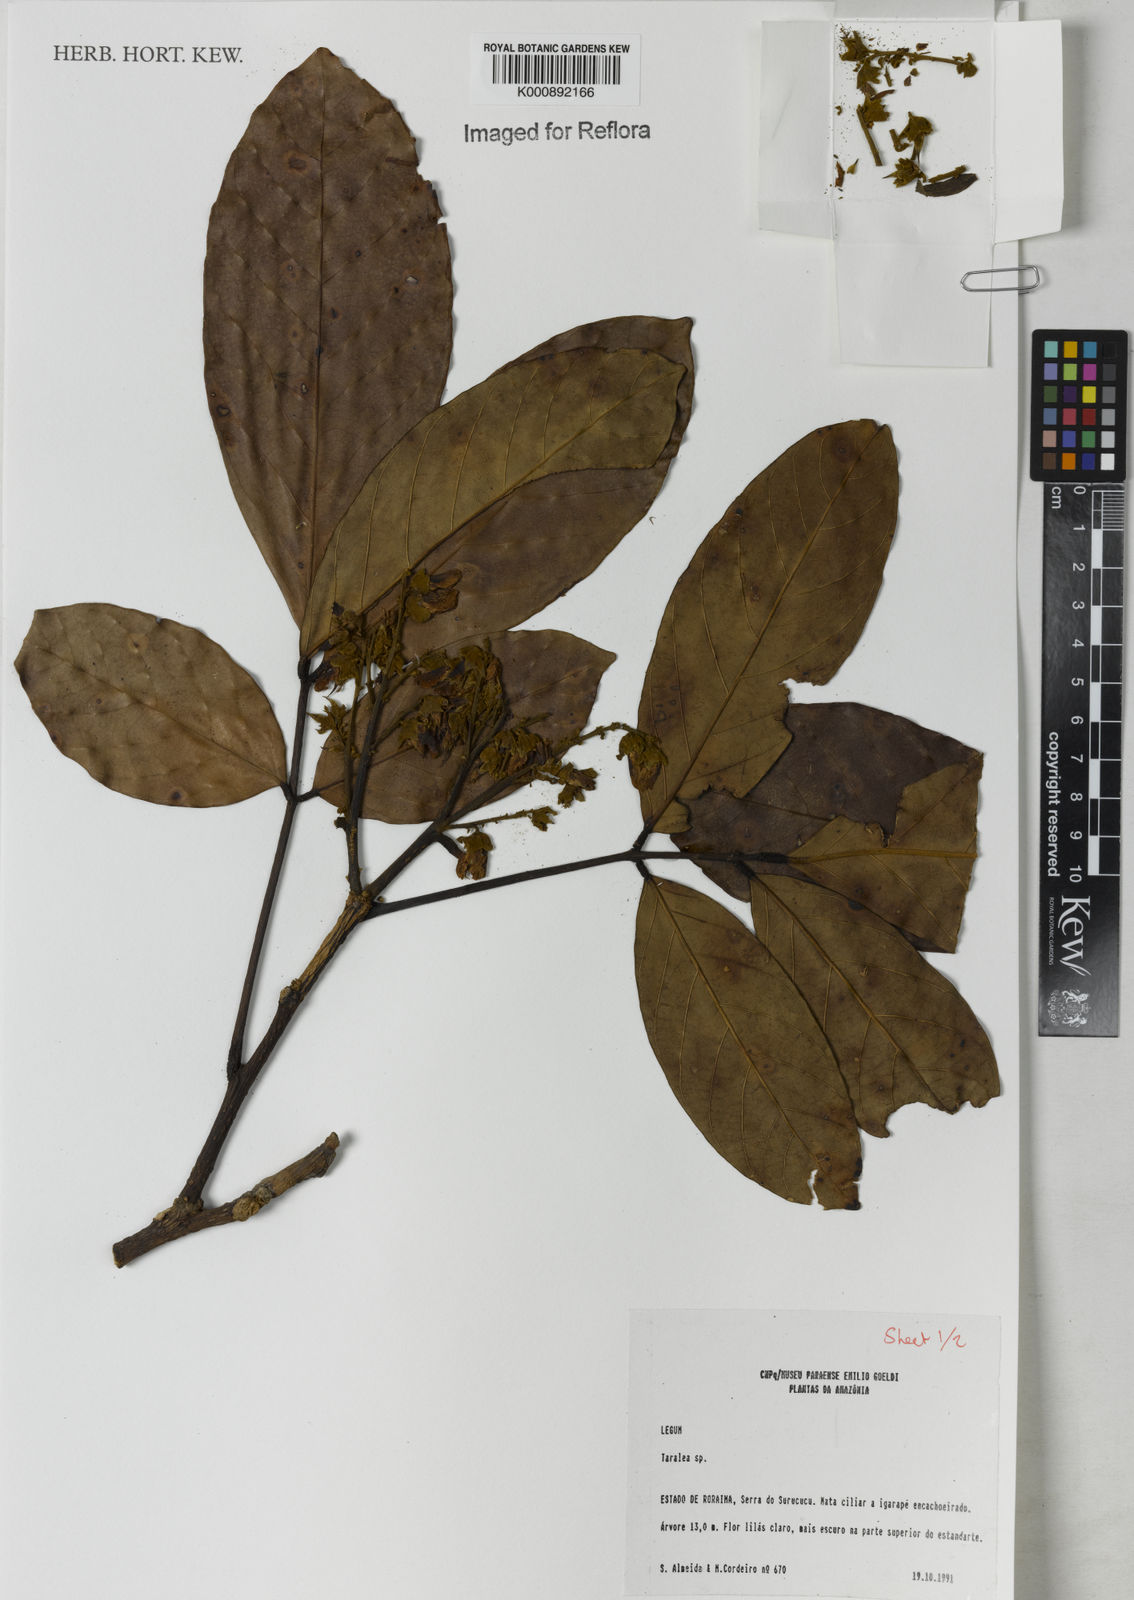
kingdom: Plantae
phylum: Tracheophyta
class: Magnoliopsida
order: Fabales
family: Fabaceae
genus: Taralea
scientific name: Taralea
